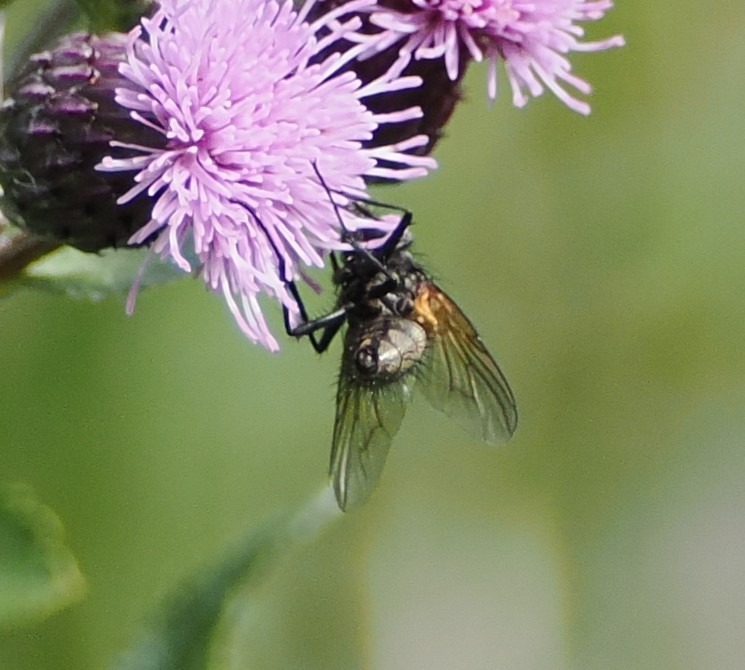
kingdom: Animalia
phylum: Arthropoda
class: Insecta
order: Diptera
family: Muscidae
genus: Phaonia
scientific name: Phaonia angelicae
